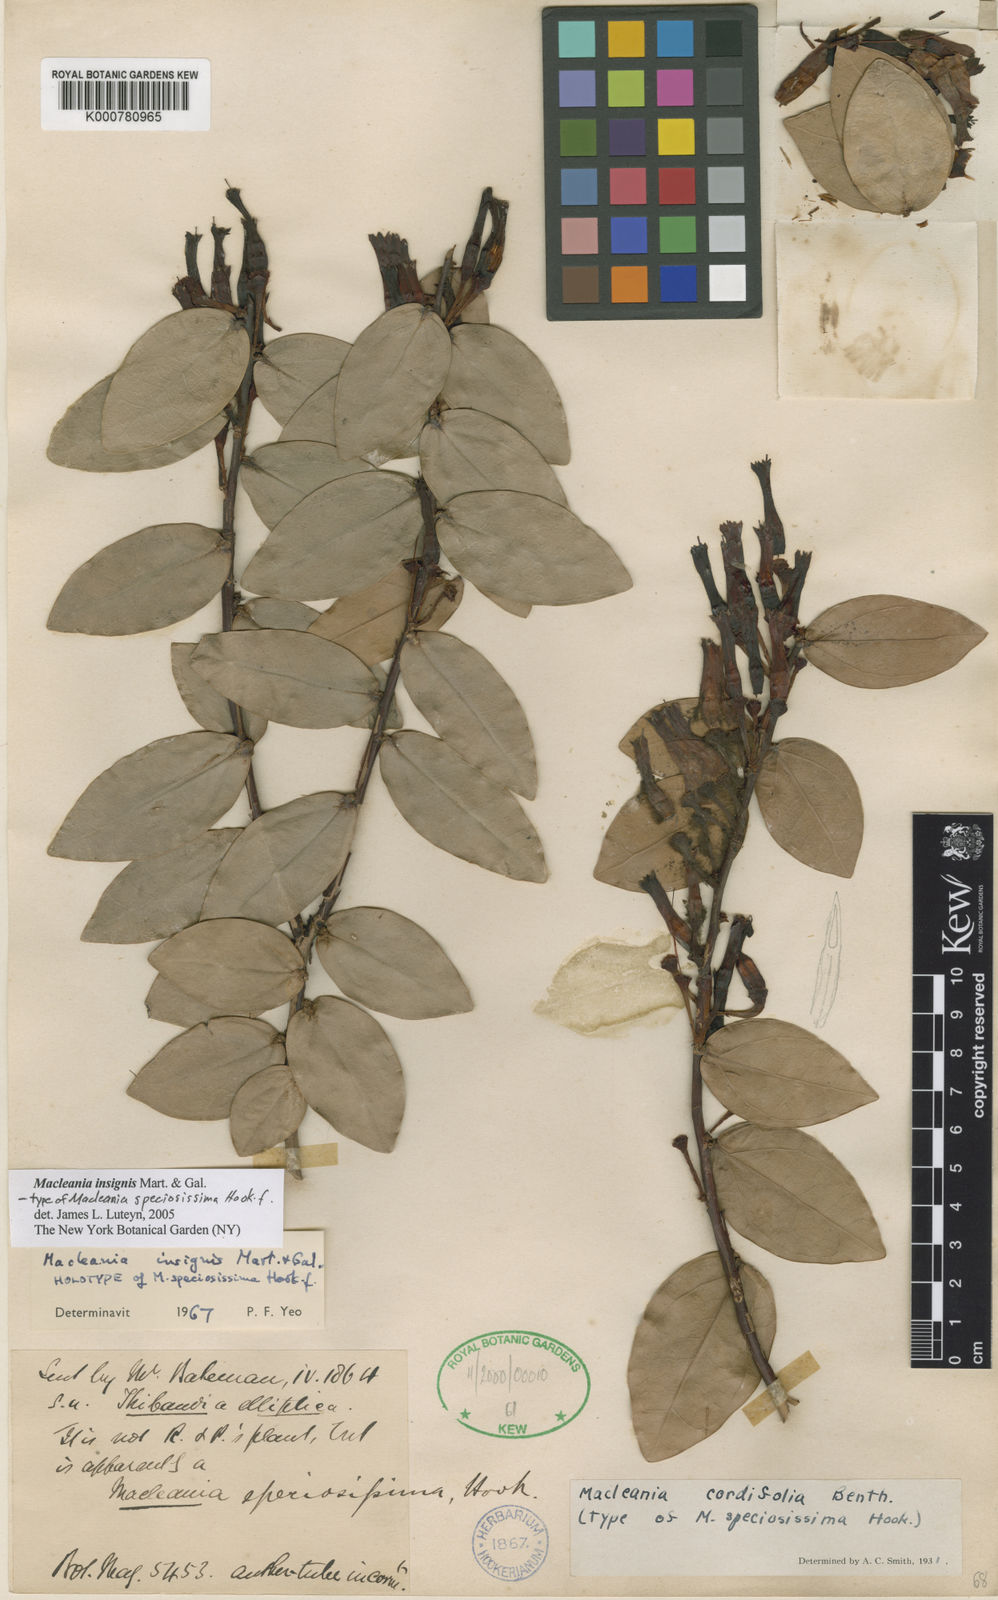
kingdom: Plantae
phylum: Tracheophyta
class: Magnoliopsida
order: Ericales
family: Ericaceae
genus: Macleania
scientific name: Macleania insignis
